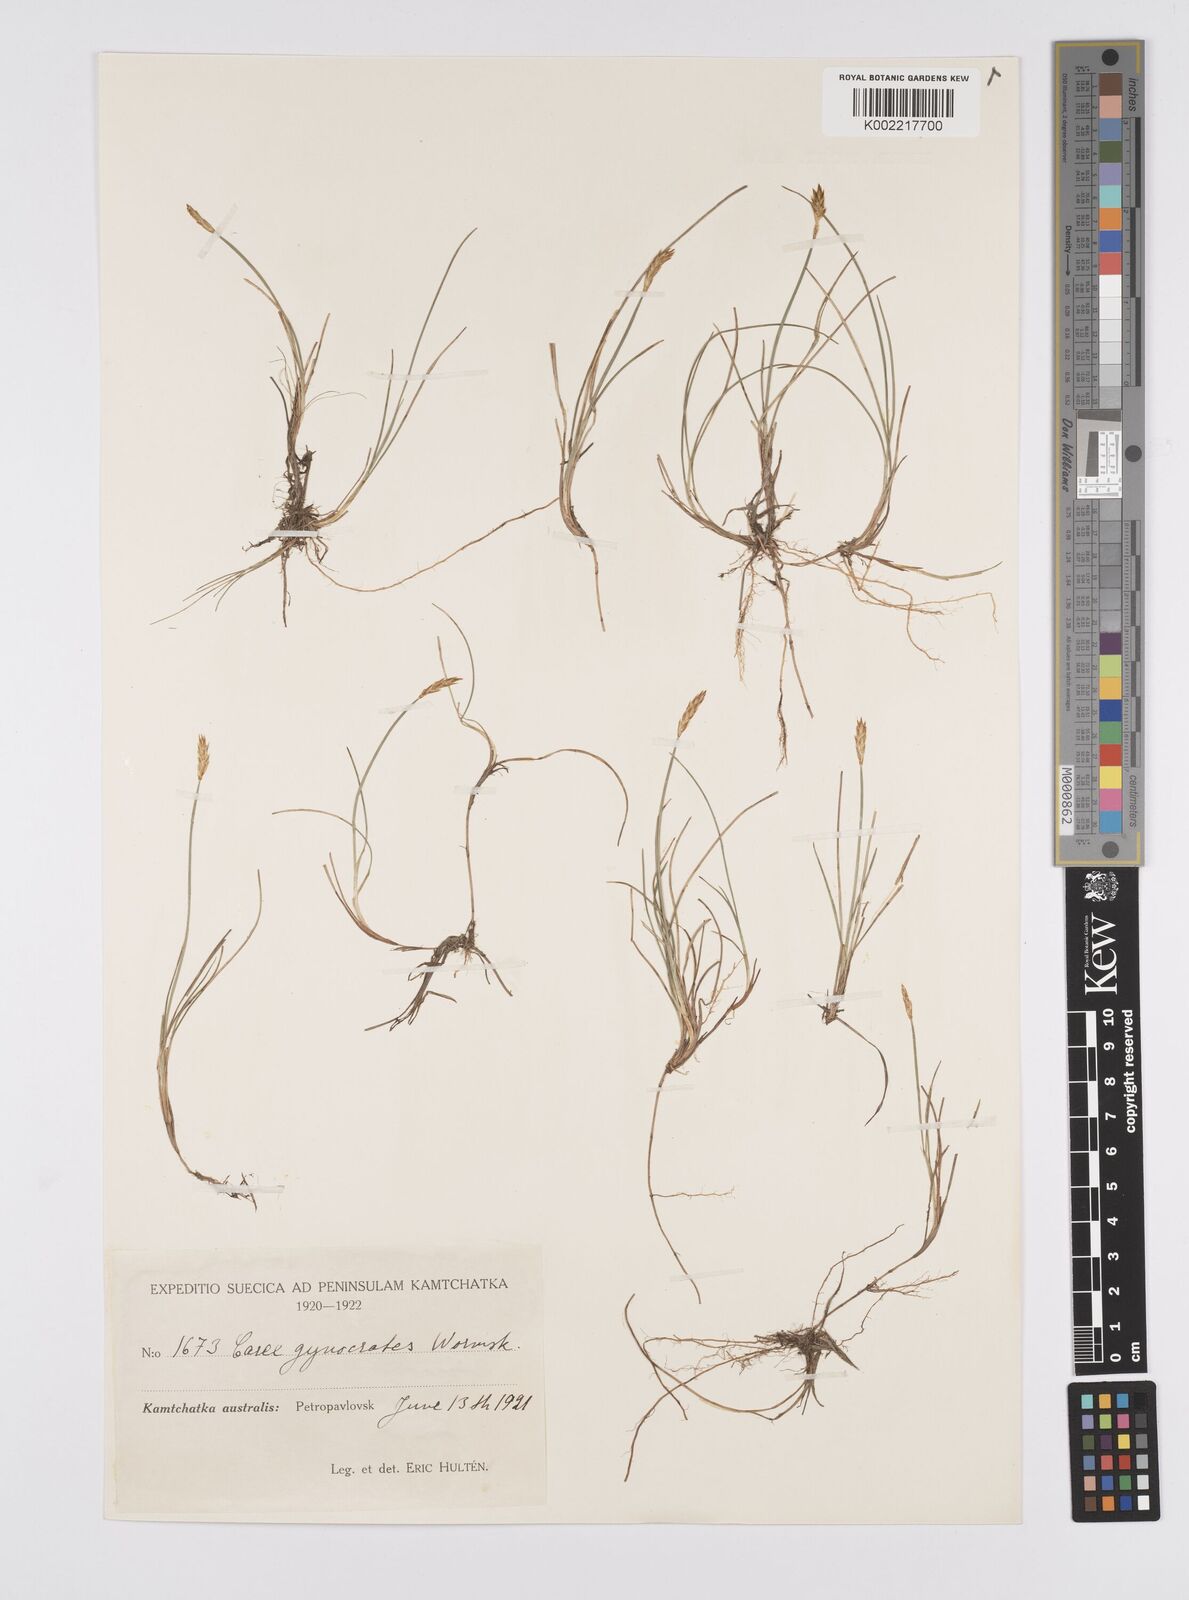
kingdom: Plantae
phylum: Tracheophyta
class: Liliopsida
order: Poales
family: Cyperaceae
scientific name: Cyperaceae
